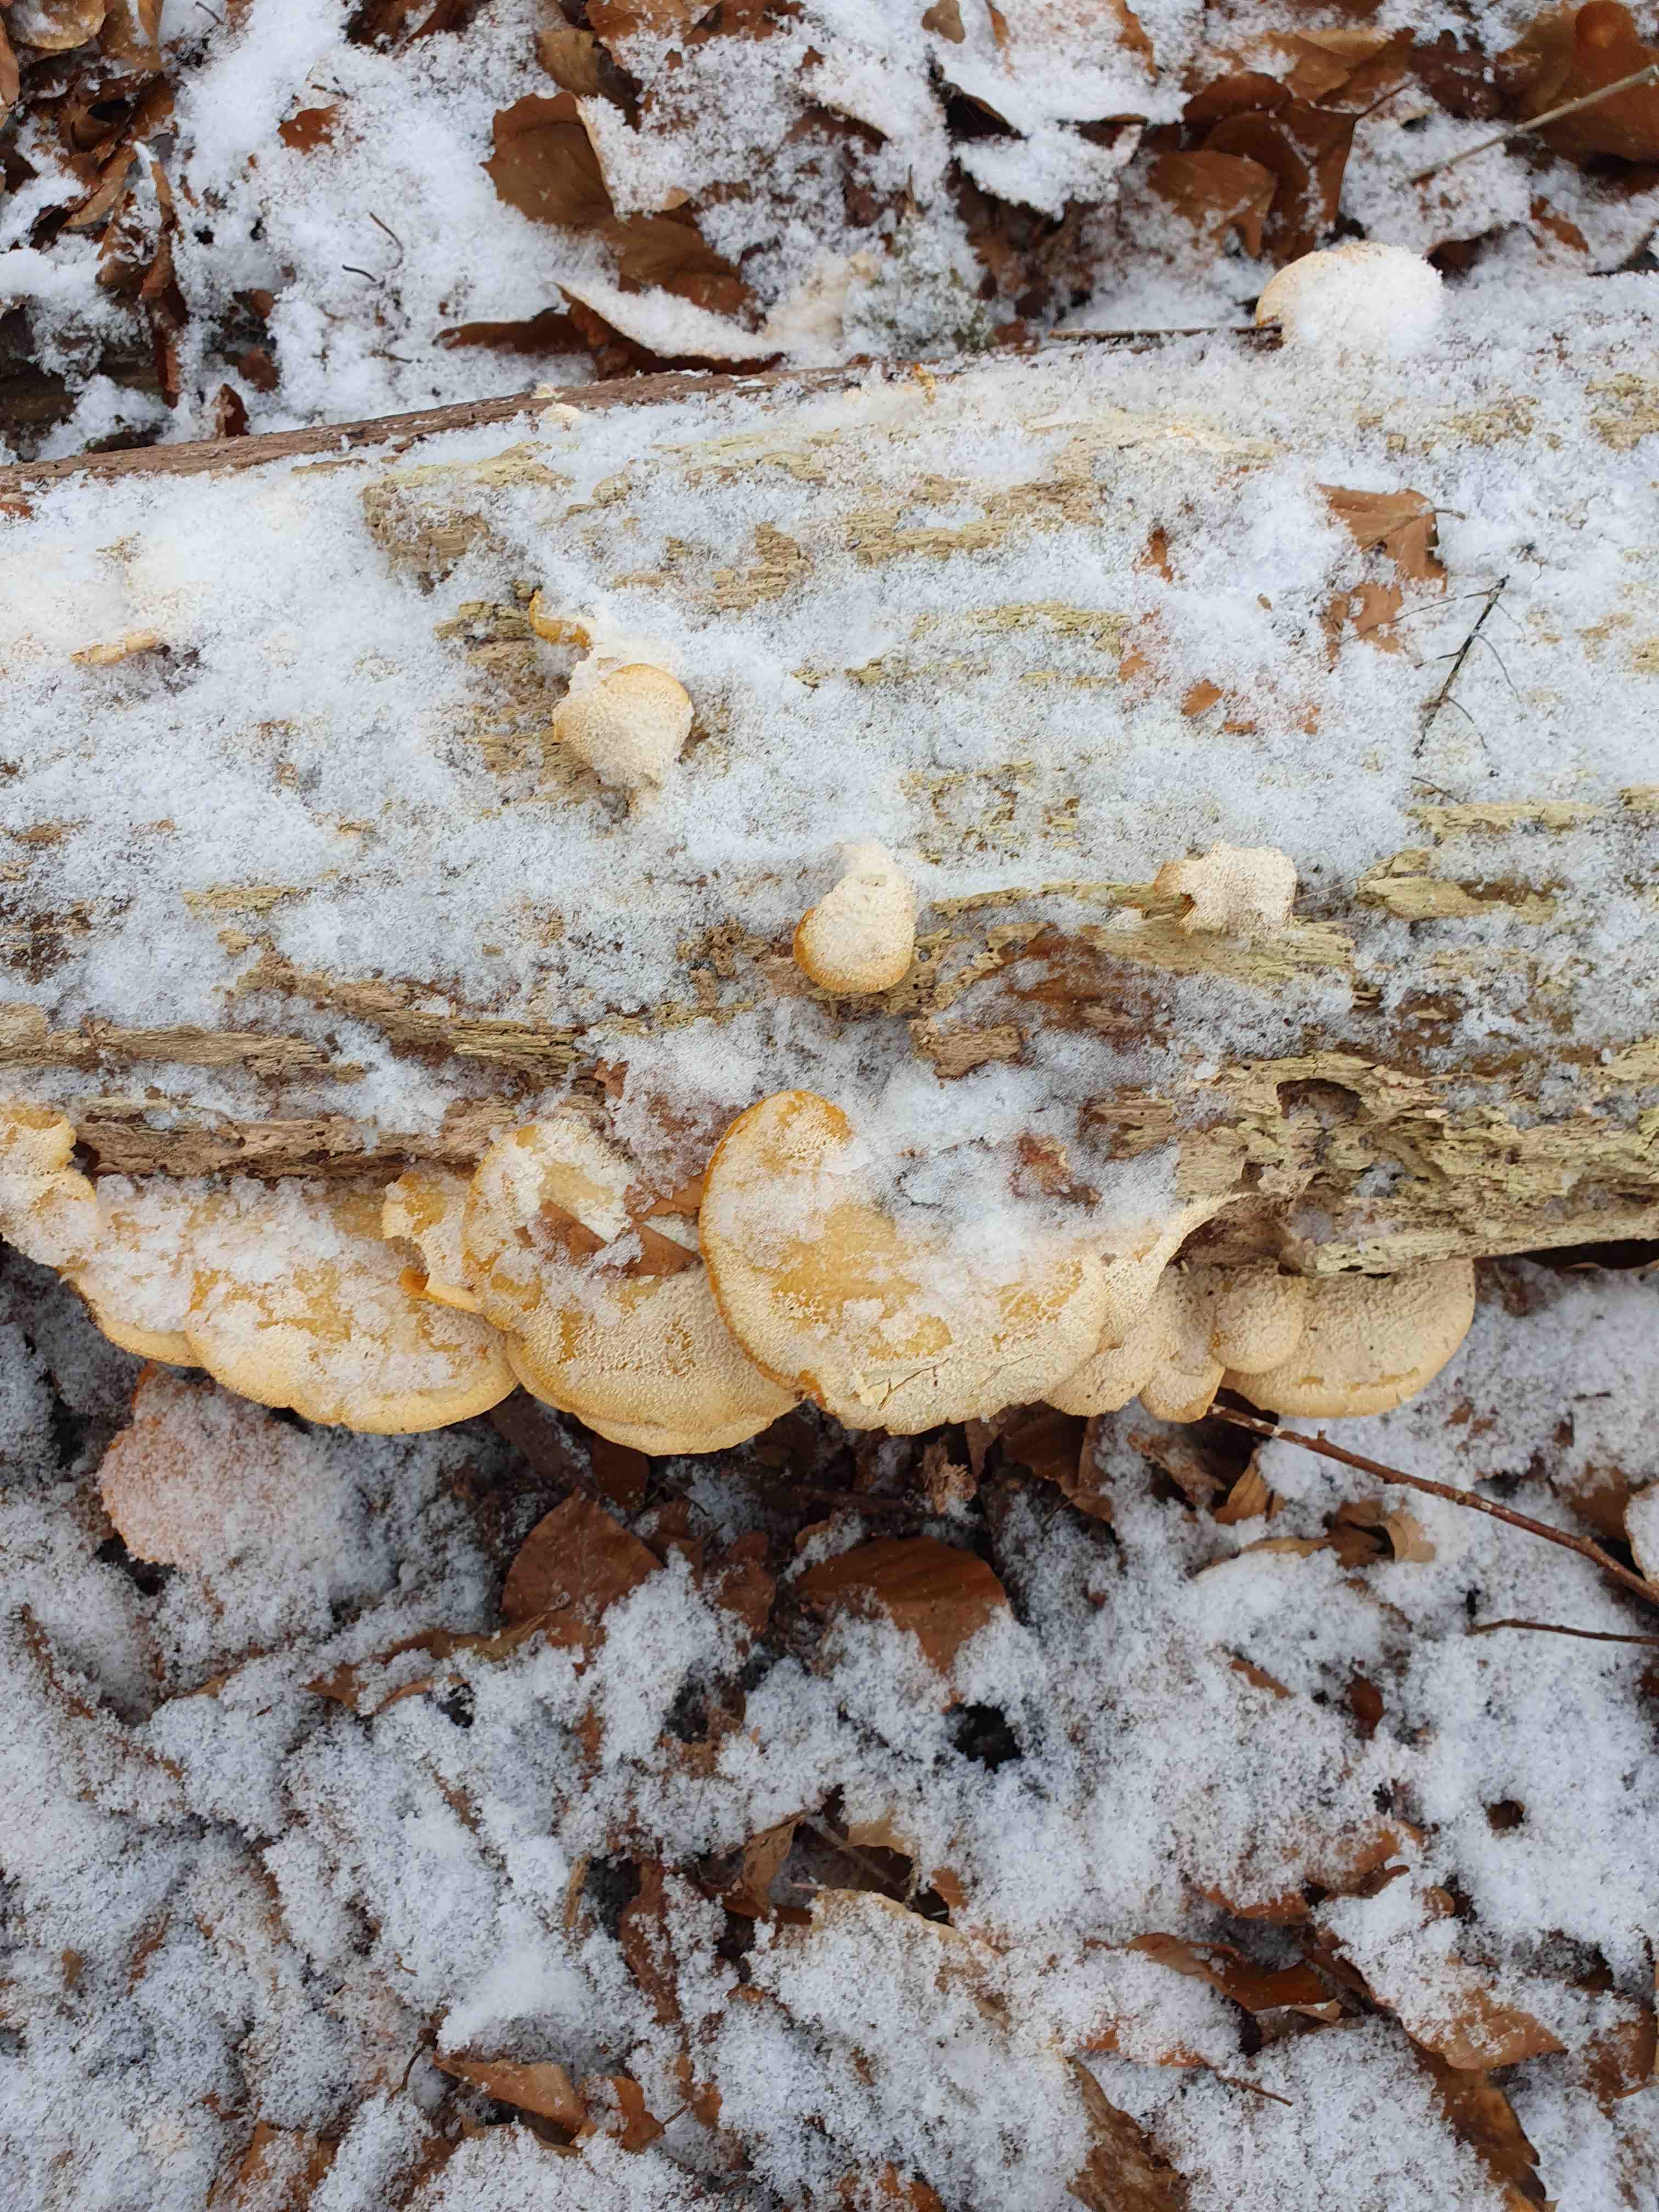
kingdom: Fungi
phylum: Basidiomycota
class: Agaricomycetes
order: Agaricales
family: Phyllotopsidaceae
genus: Phyllotopsis
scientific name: Phyllotopsis nidulans
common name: okkerblad
